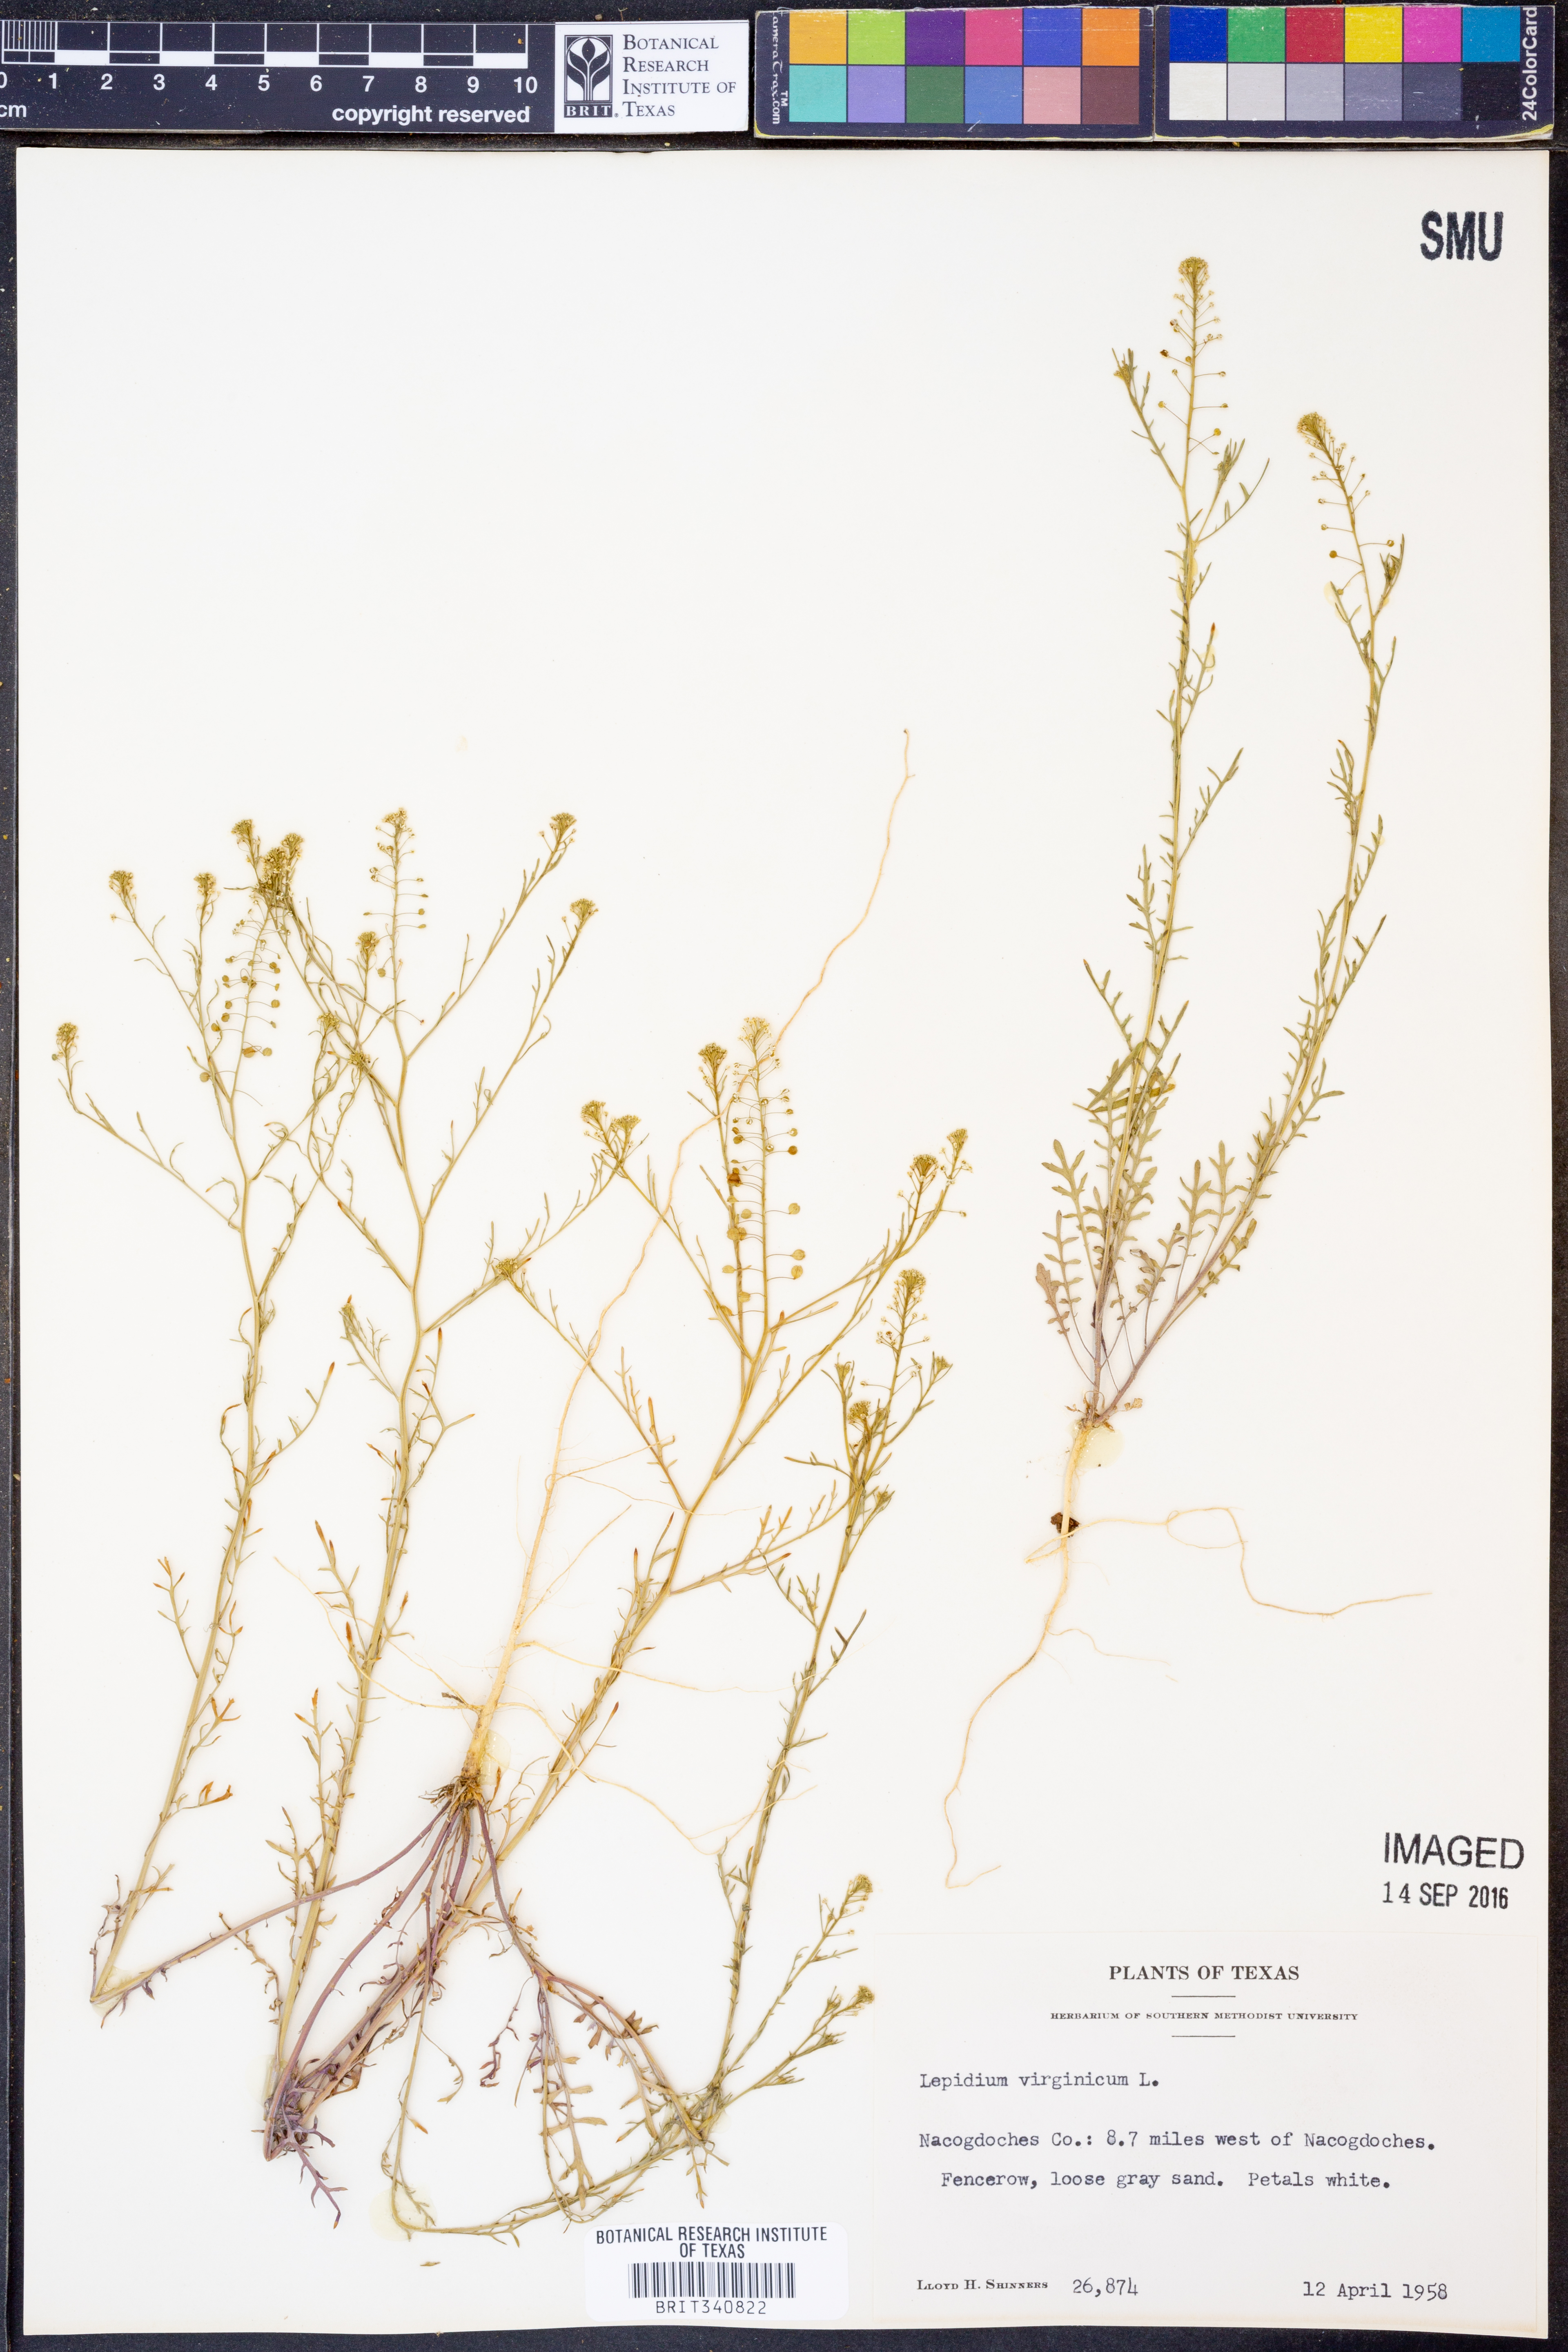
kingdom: Plantae
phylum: Tracheophyta
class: Magnoliopsida
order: Brassicales
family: Brassicaceae
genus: Lepidium
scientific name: Lepidium virginicum
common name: Least pepperwort
